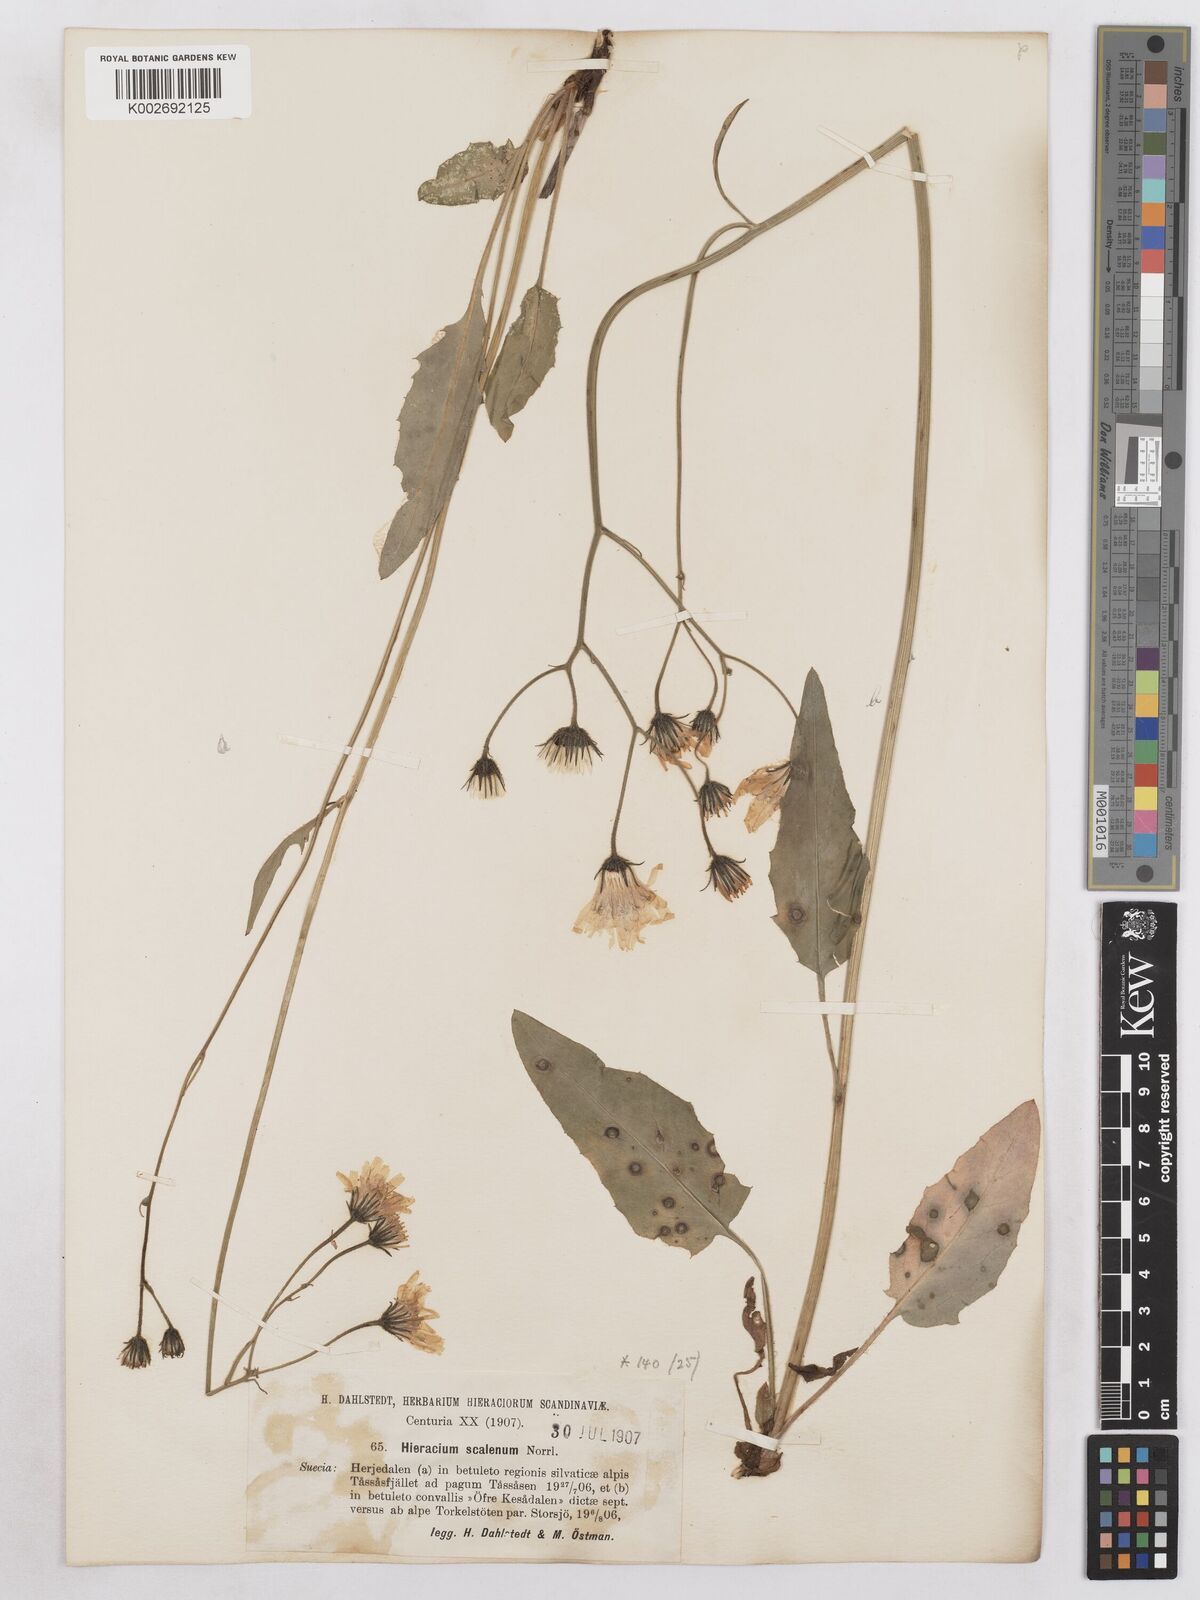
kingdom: Plantae
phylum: Tracheophyta
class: Magnoliopsida
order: Asterales
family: Asteraceae
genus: Hieracium
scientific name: Hieracium fuscocinereum
